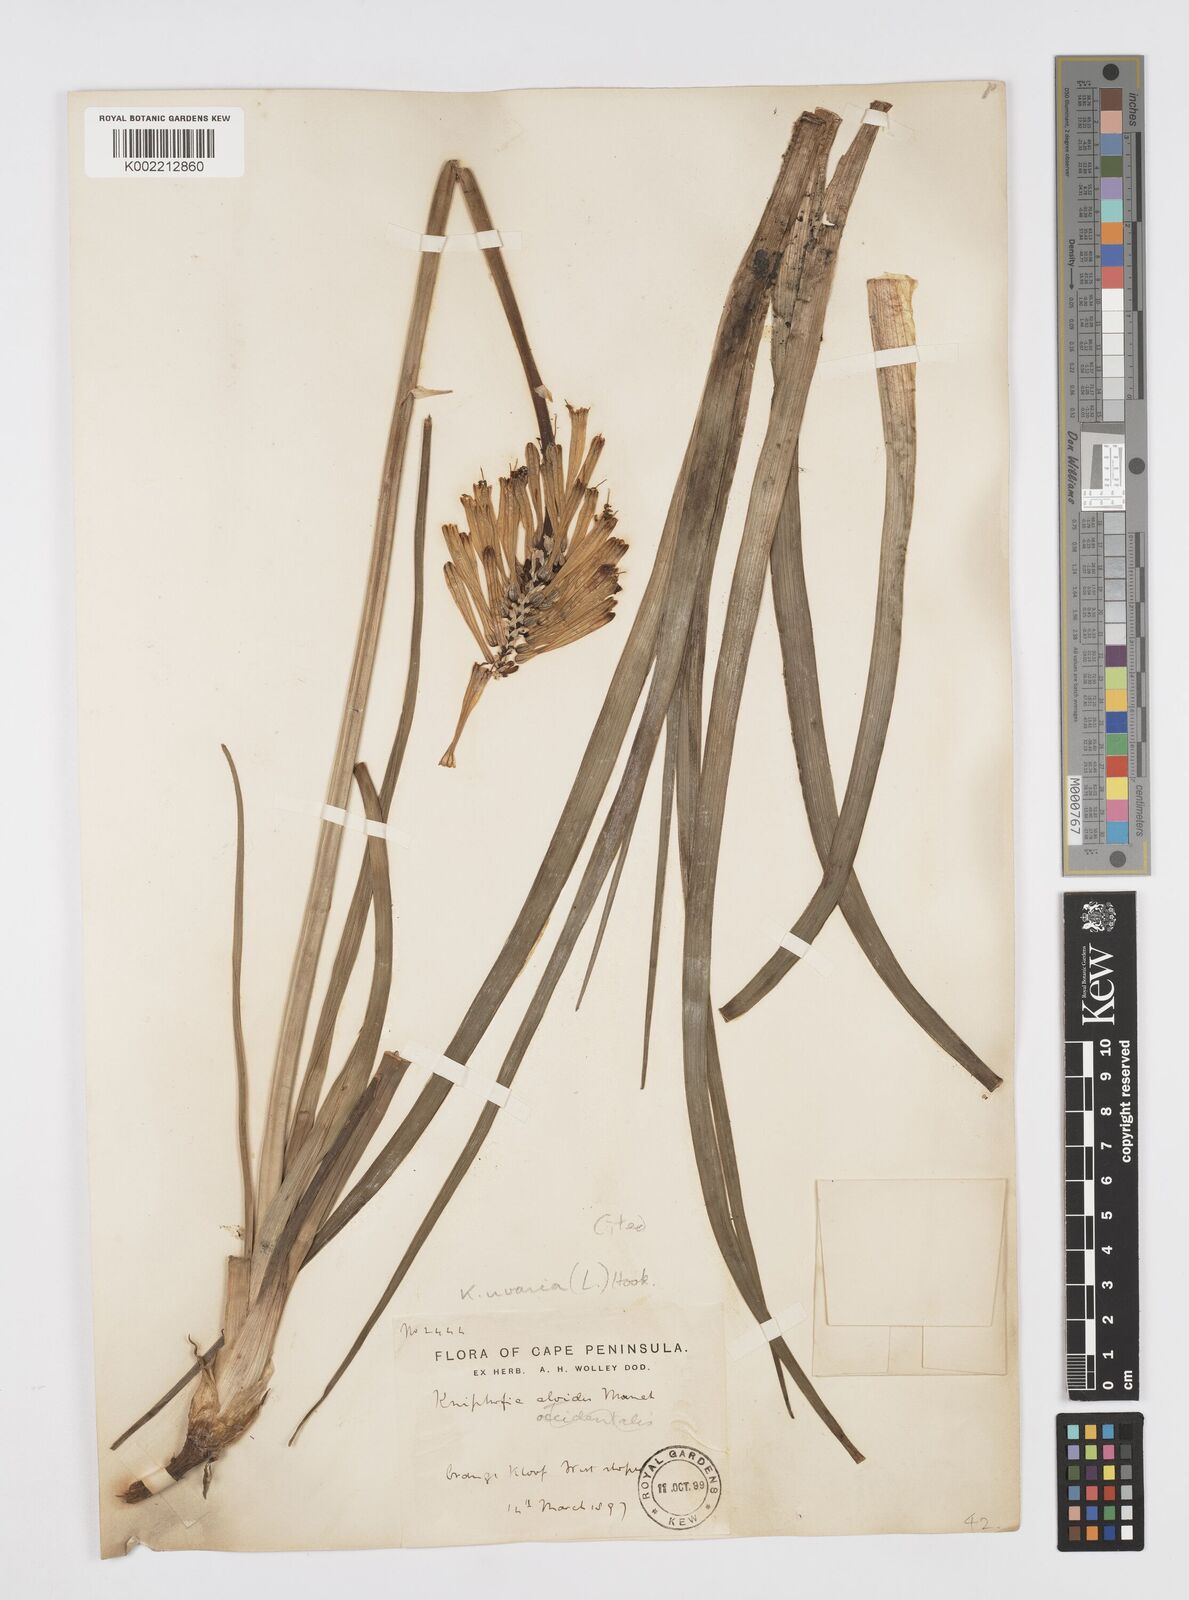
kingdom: Plantae
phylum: Tracheophyta
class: Liliopsida
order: Asparagales
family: Asphodelaceae
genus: Kniphofia
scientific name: Kniphofia uvaria
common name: Red-hot-poker
